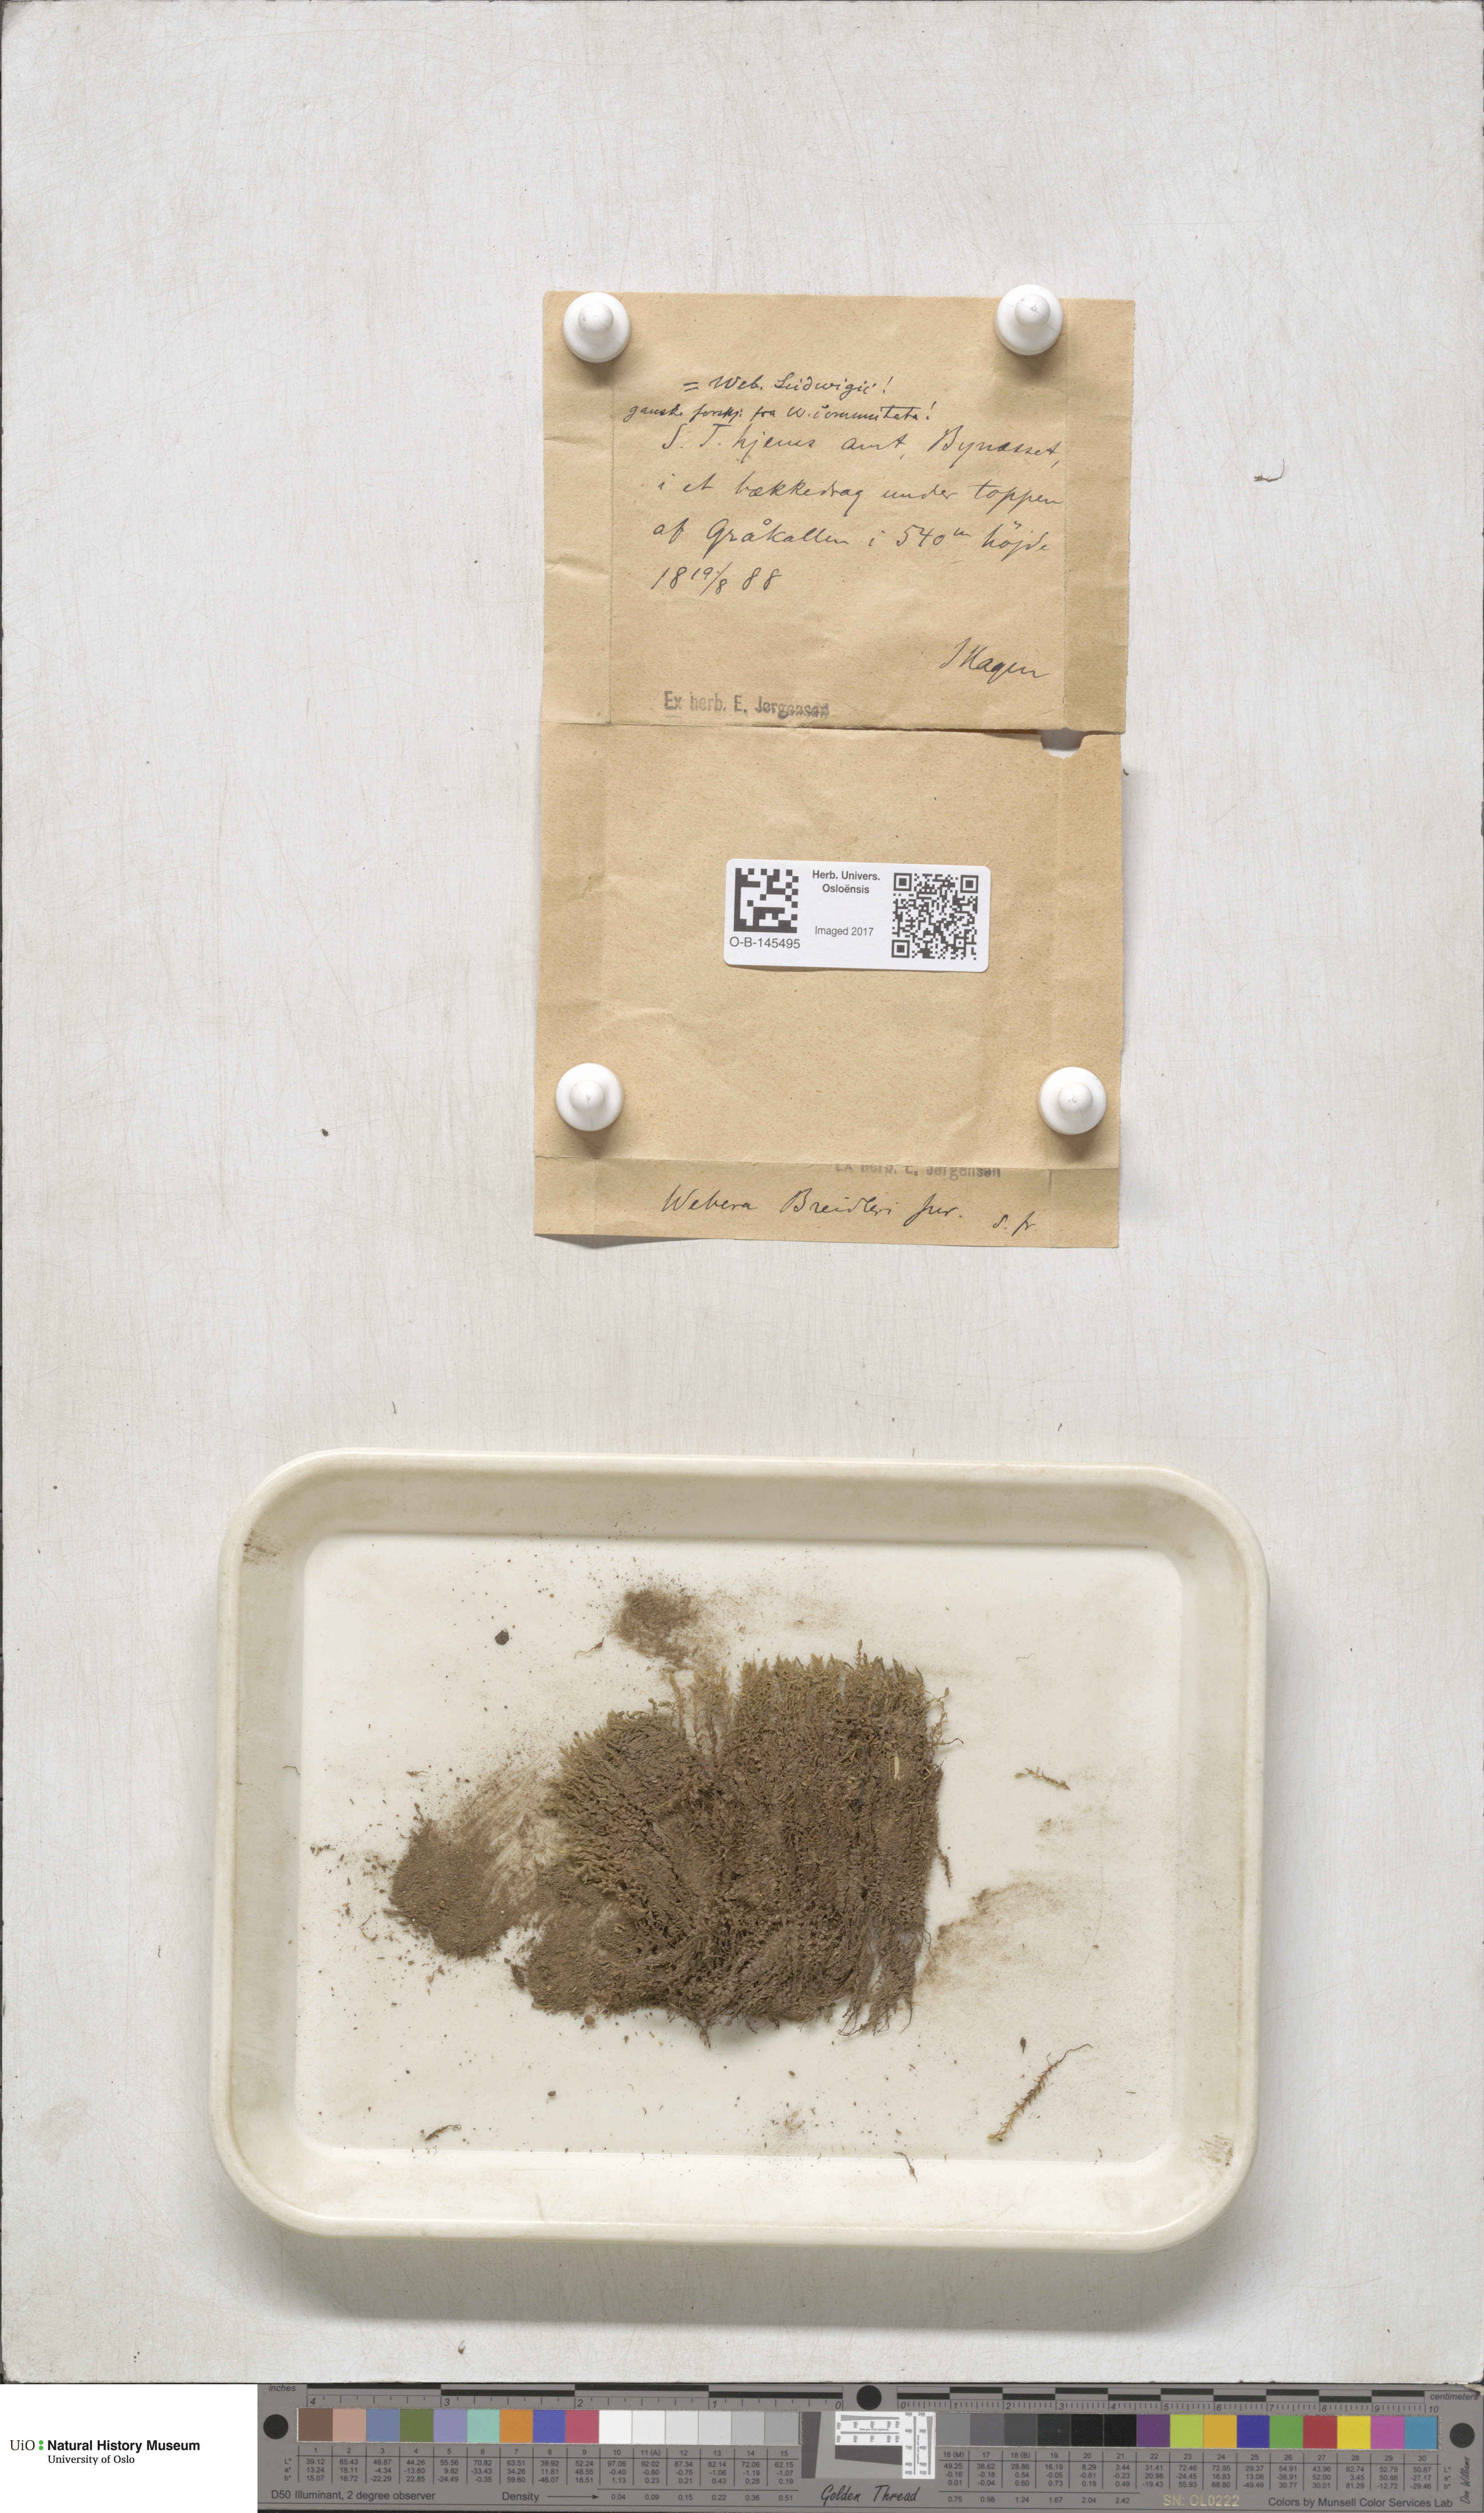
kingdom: Plantae
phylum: Bryophyta
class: Bryopsida
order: Bryales
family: Mniaceae
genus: Pohlia
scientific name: Pohlia ludwigii
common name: Ludwig's thread-moss
